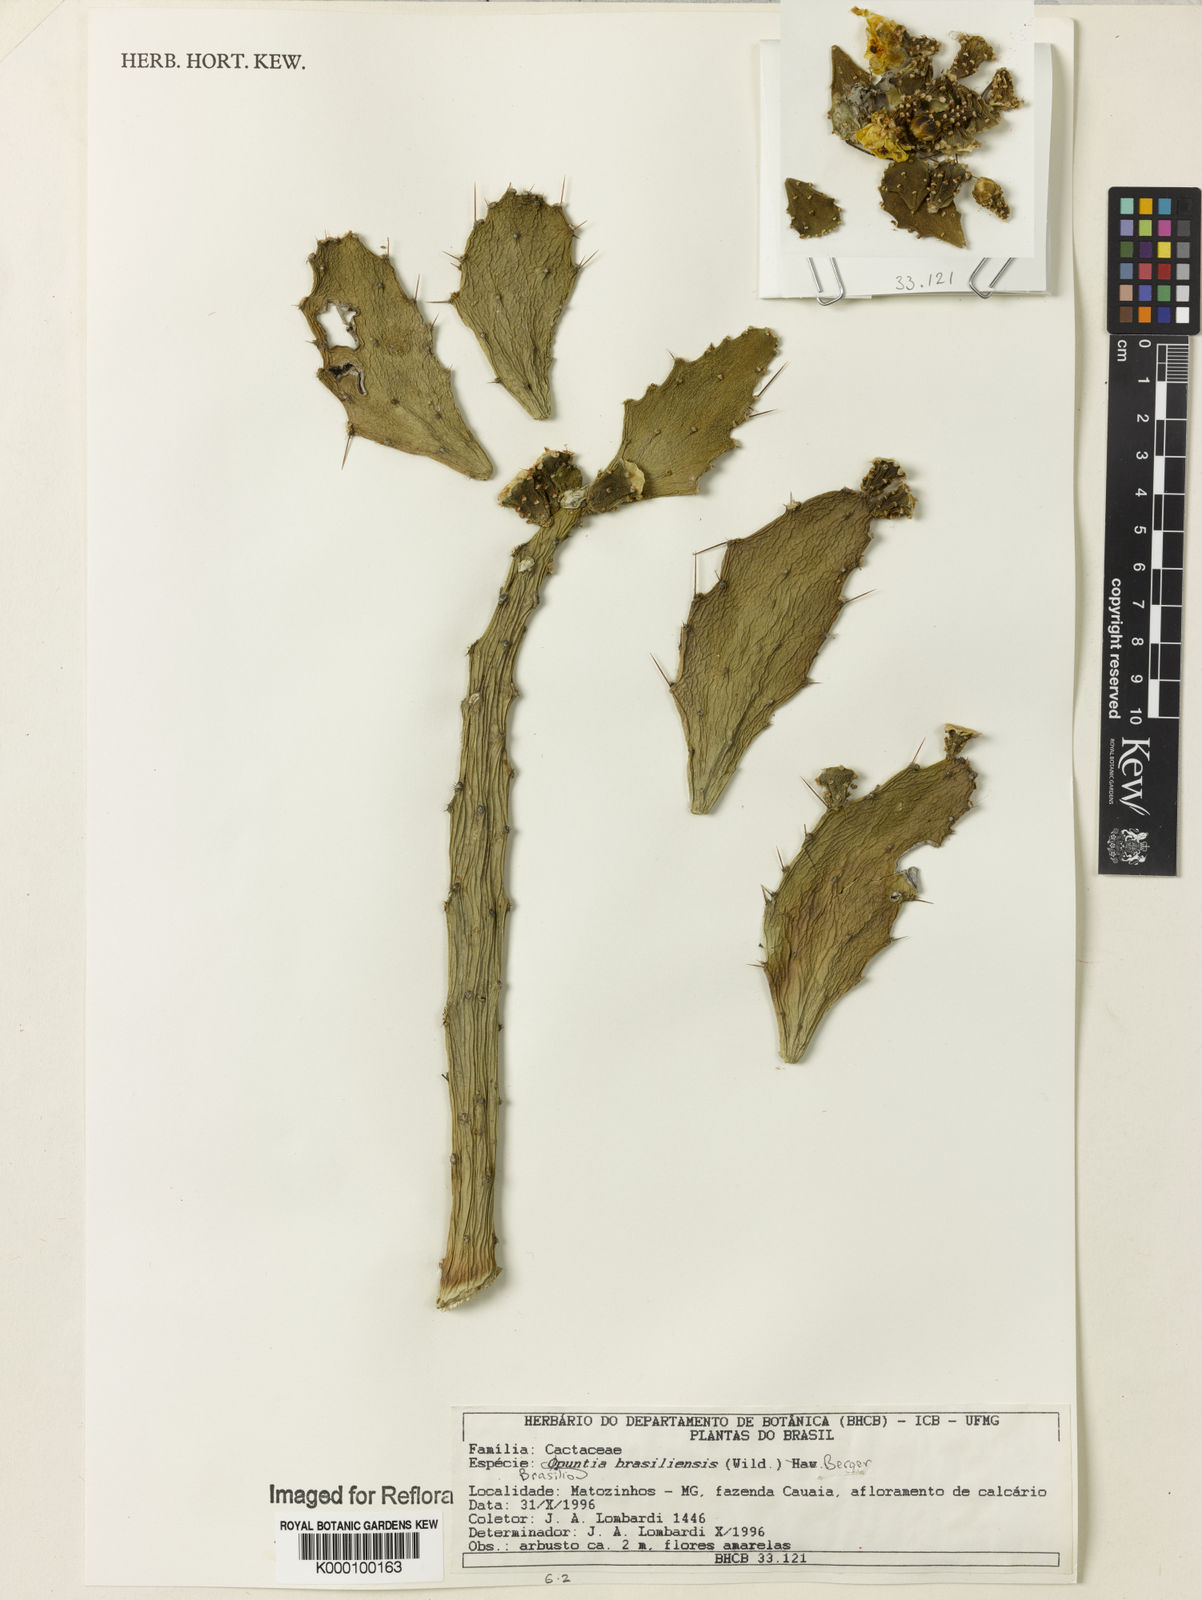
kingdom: Plantae
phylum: Tracheophyta
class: Magnoliopsida
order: Caryophyllales
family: Cactaceae
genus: Brasiliopuntia
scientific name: Brasiliopuntia brasiliensis
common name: Brazilian pricklypear
